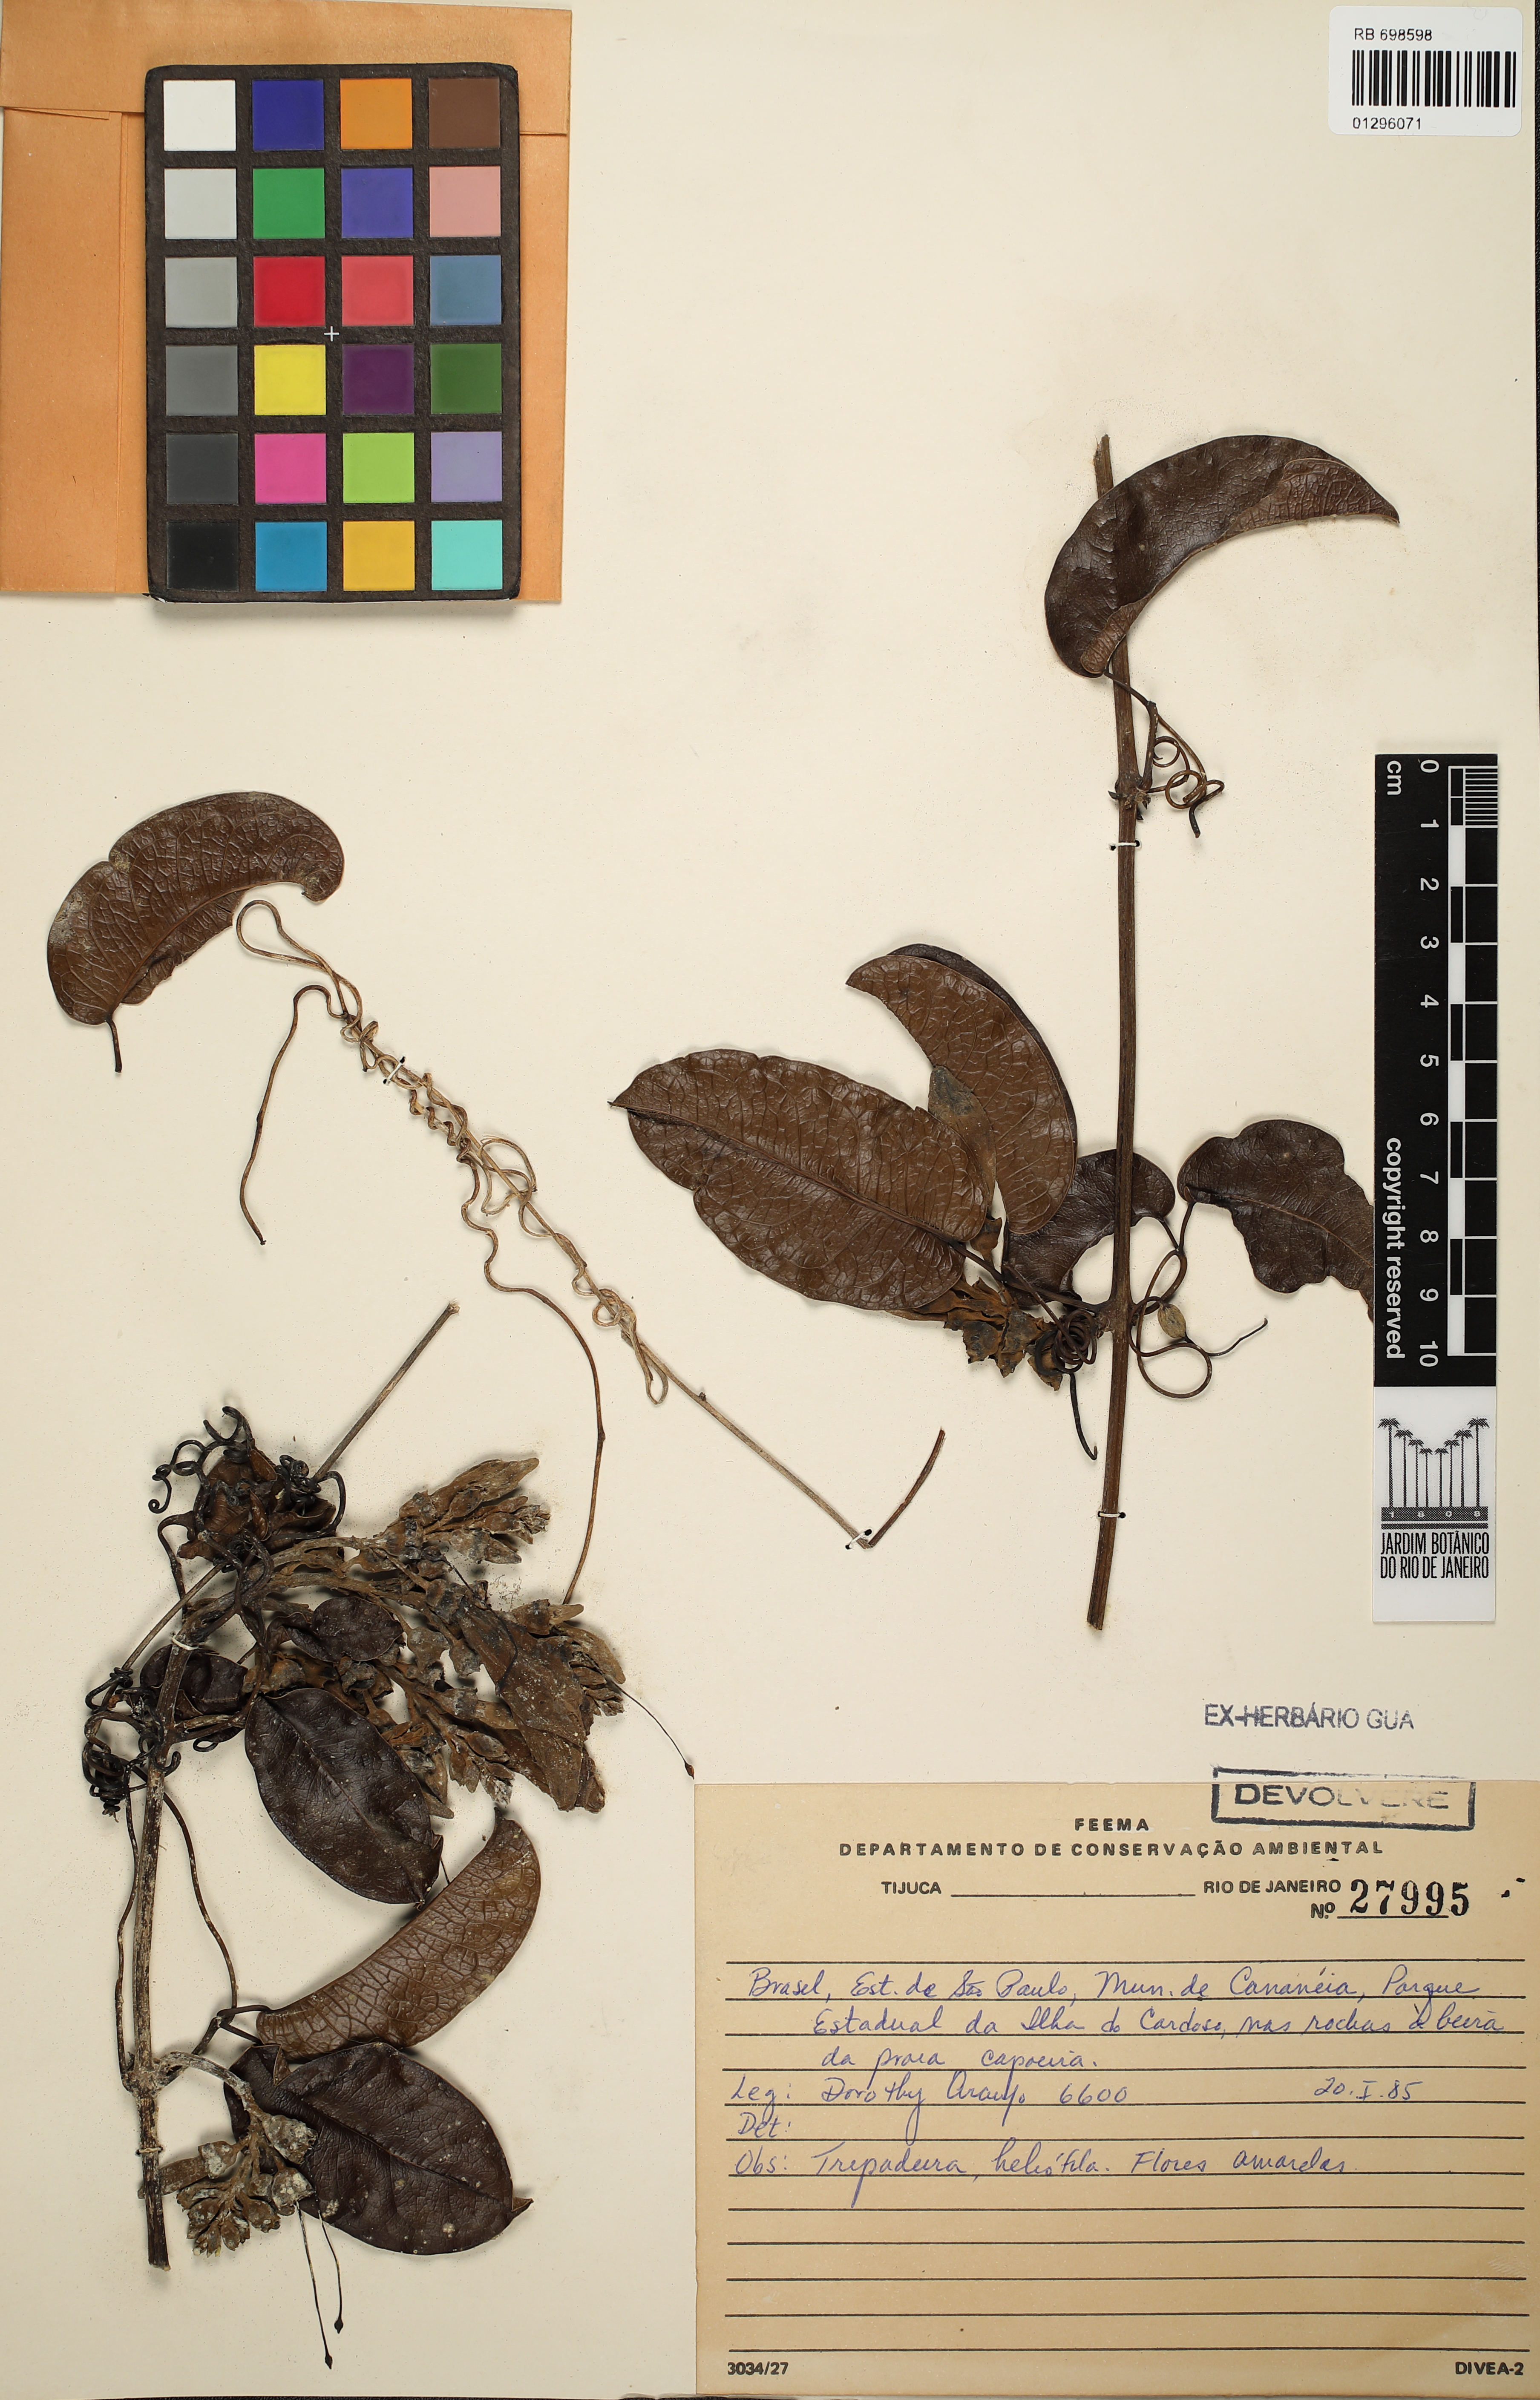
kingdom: Plantae
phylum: Tracheophyta
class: Magnoliopsida
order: Lamiales
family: Bignoniaceae
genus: Adenocalymma
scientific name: Adenocalymma marginatum
